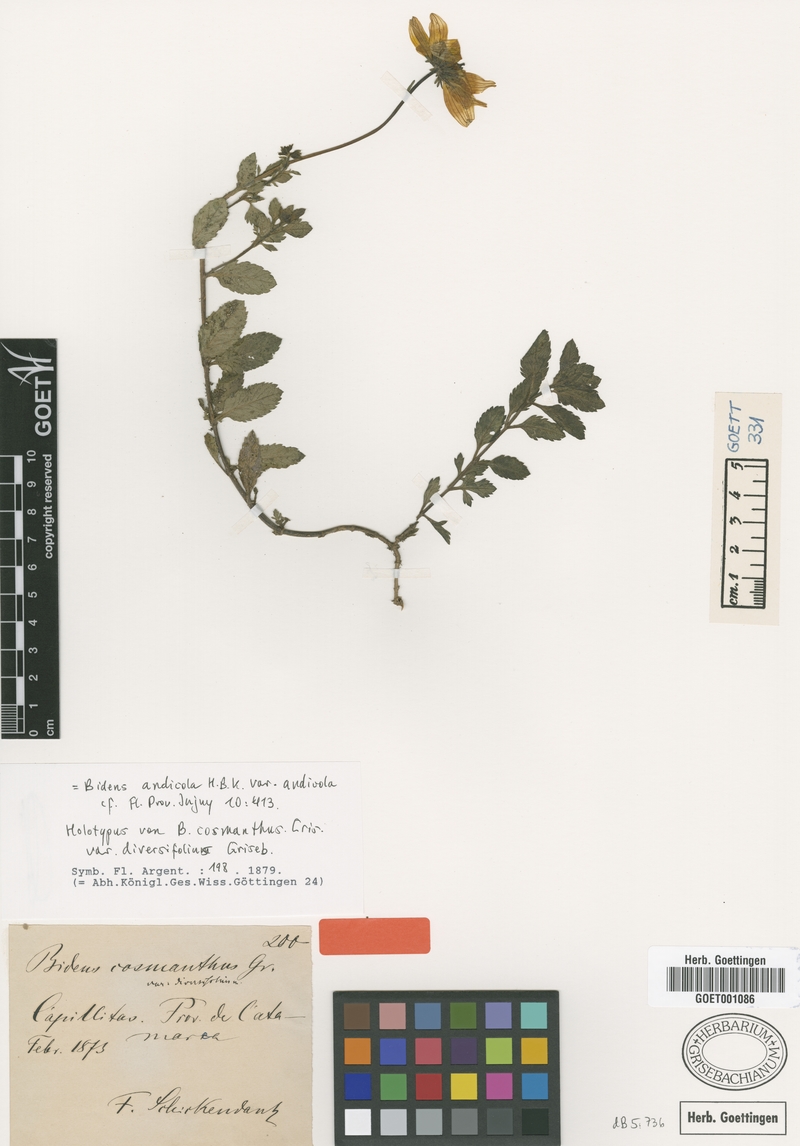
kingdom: Plantae
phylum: Tracheophyta
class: Magnoliopsida
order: Asterales
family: Asteraceae
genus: Bidens
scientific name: Bidens andicola
